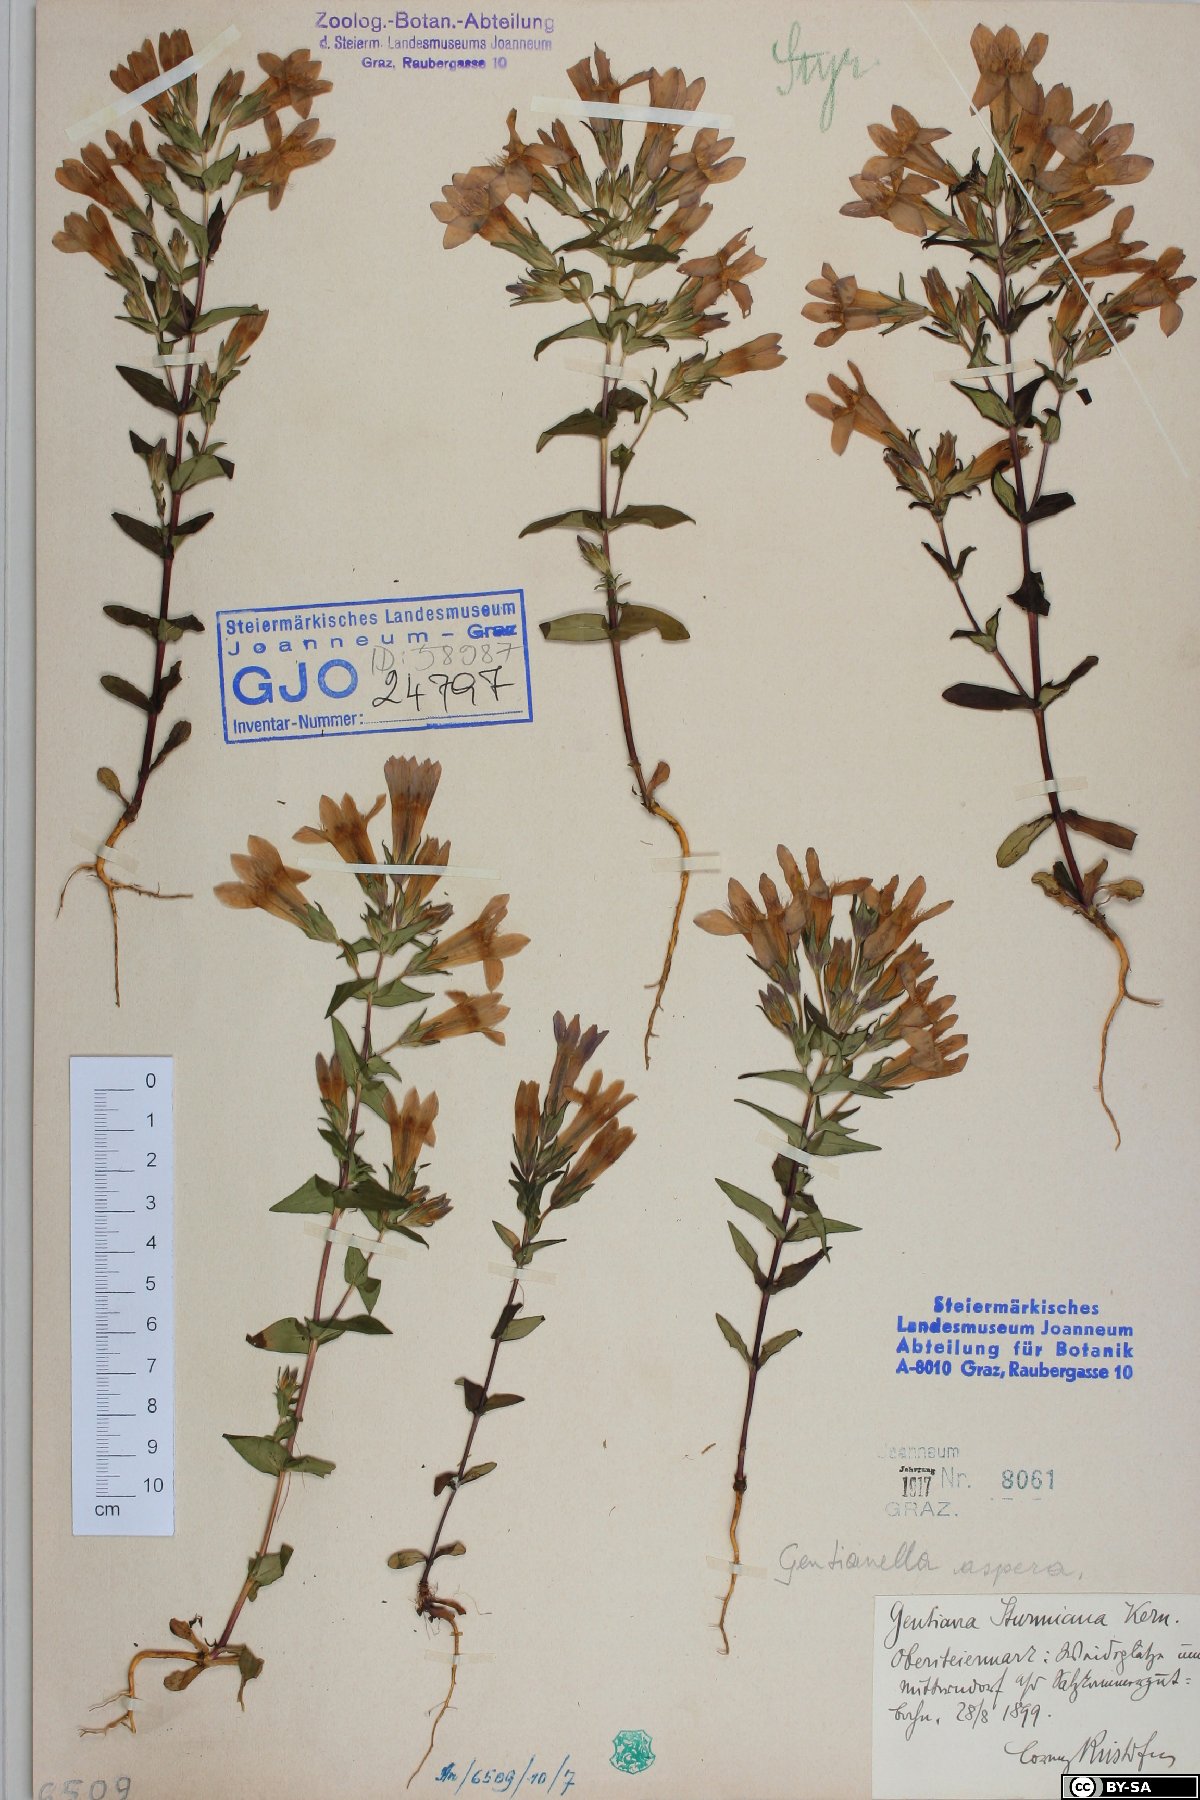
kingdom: Plantae
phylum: Tracheophyta
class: Magnoliopsida
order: Gentianales
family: Gentianaceae
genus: Gentianella
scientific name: Gentianella obtusifolia
